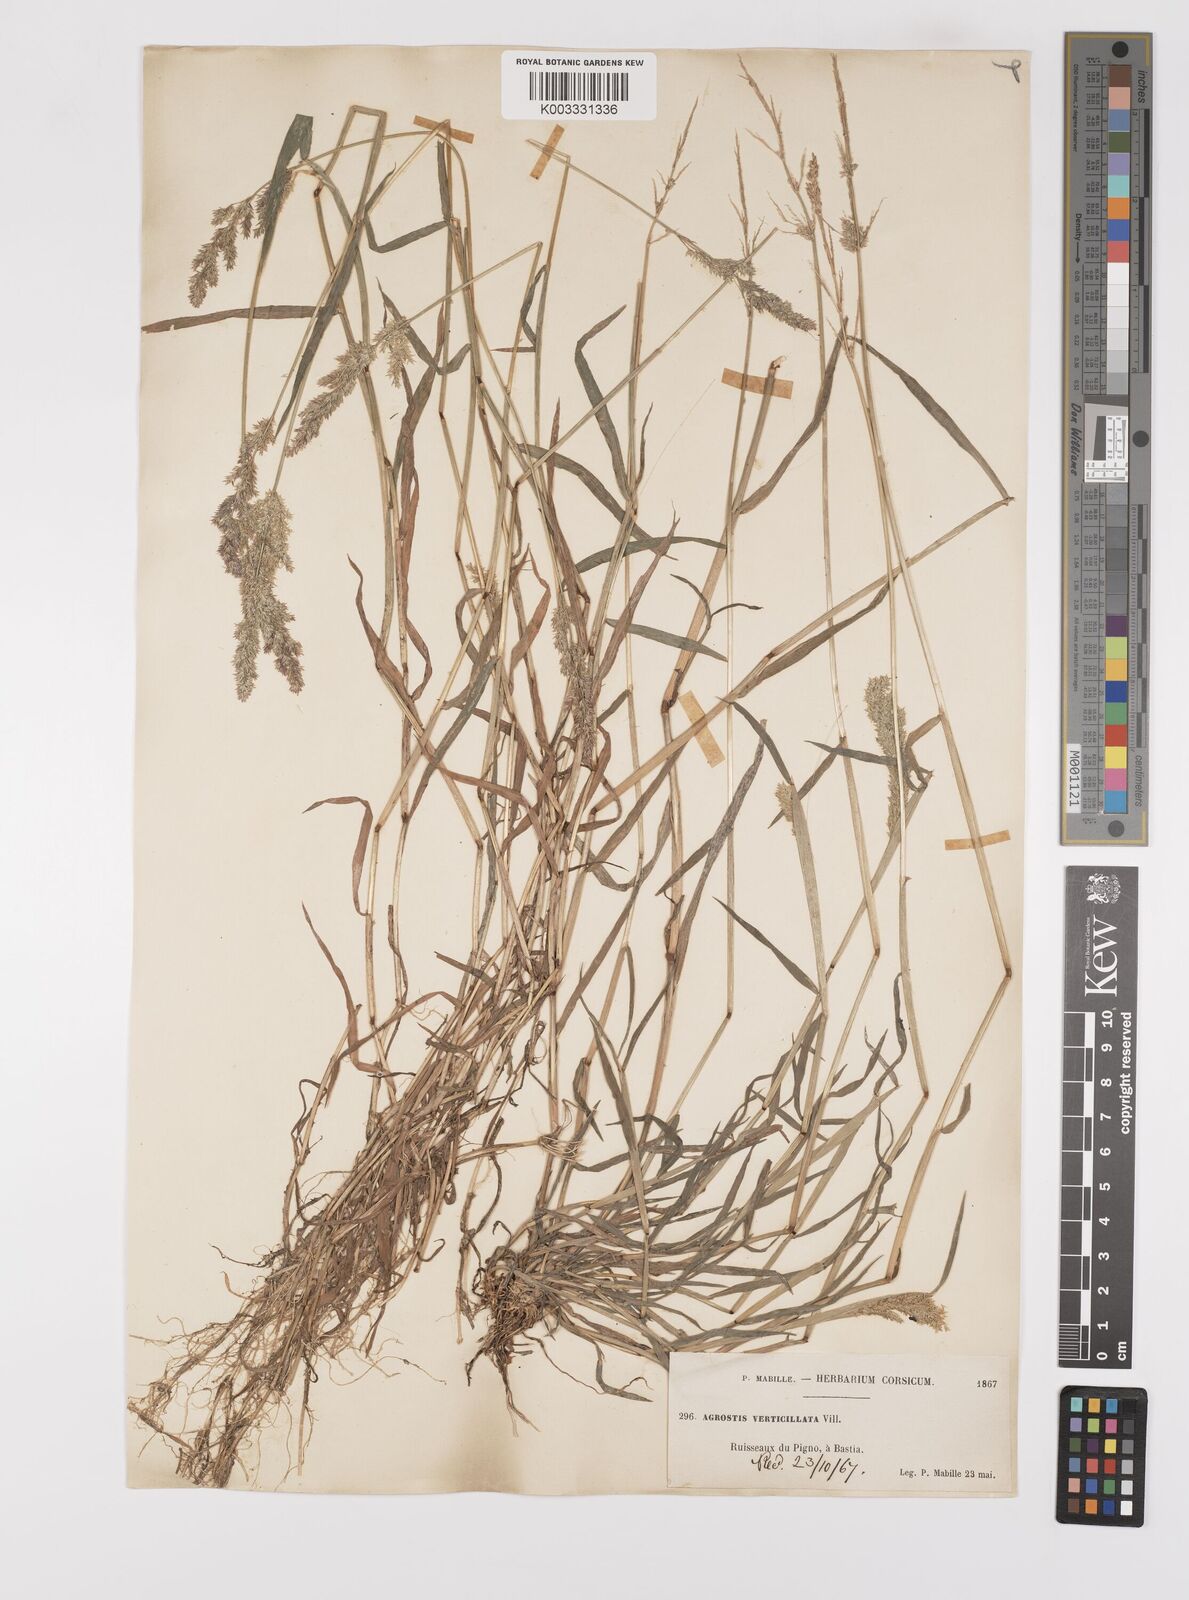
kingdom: Plantae
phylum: Tracheophyta
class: Liliopsida
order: Poales
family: Poaceae
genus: Polypogon
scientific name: Polypogon viridis
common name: Water bent
